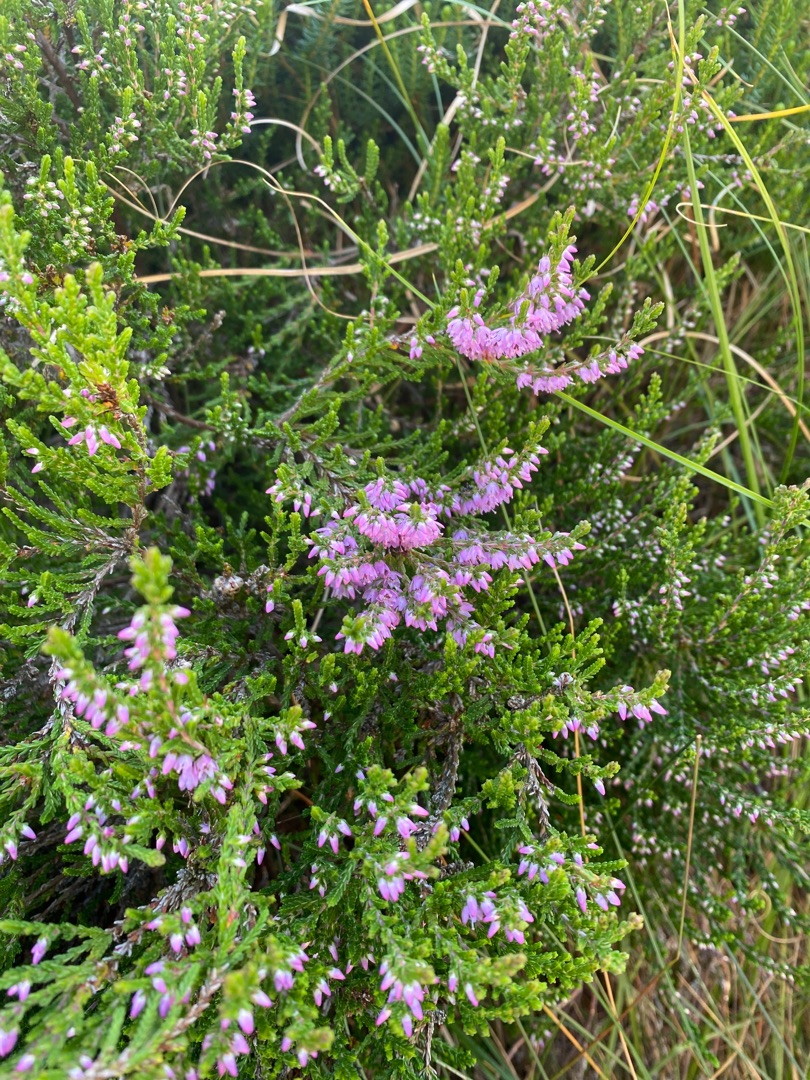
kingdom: Plantae
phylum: Tracheophyta
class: Magnoliopsida
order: Ericales
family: Ericaceae
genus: Calluna
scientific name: Calluna vulgaris
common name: Hedelyng
